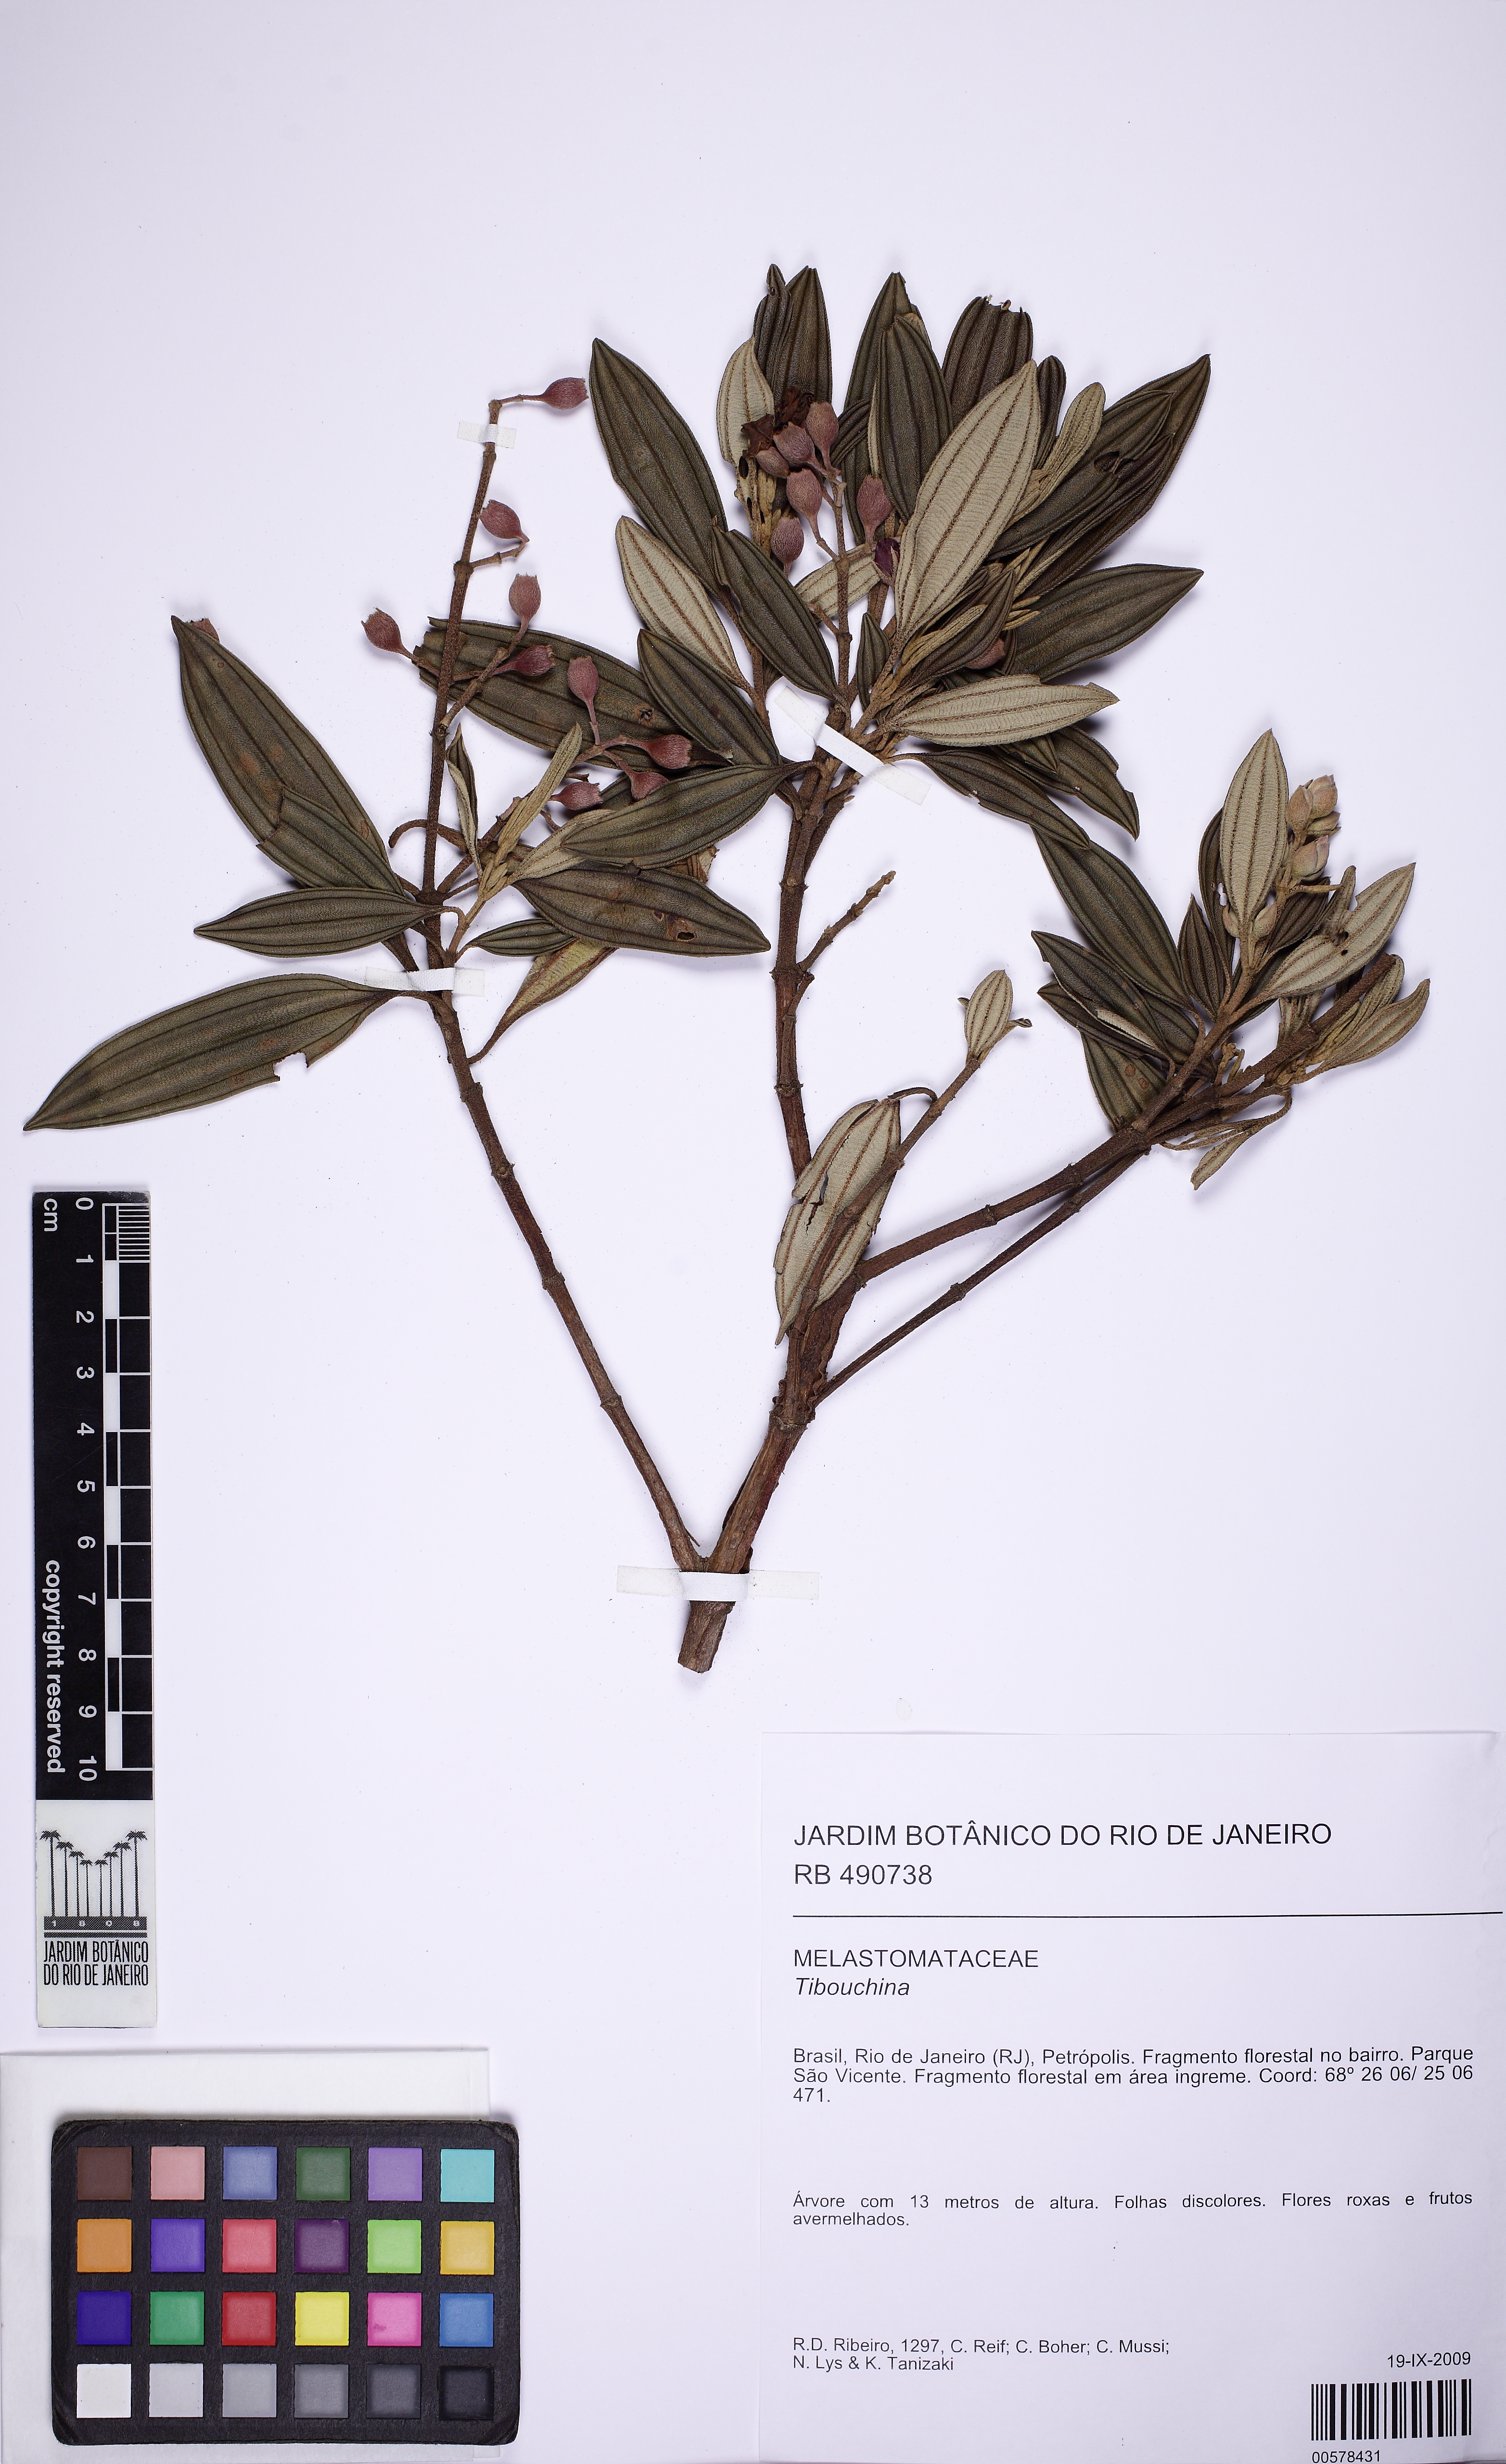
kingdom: Plantae
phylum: Tracheophyta
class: Magnoliopsida
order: Myrtales
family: Melastomataceae
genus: Pleroma
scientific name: Pleroma fissinervium
